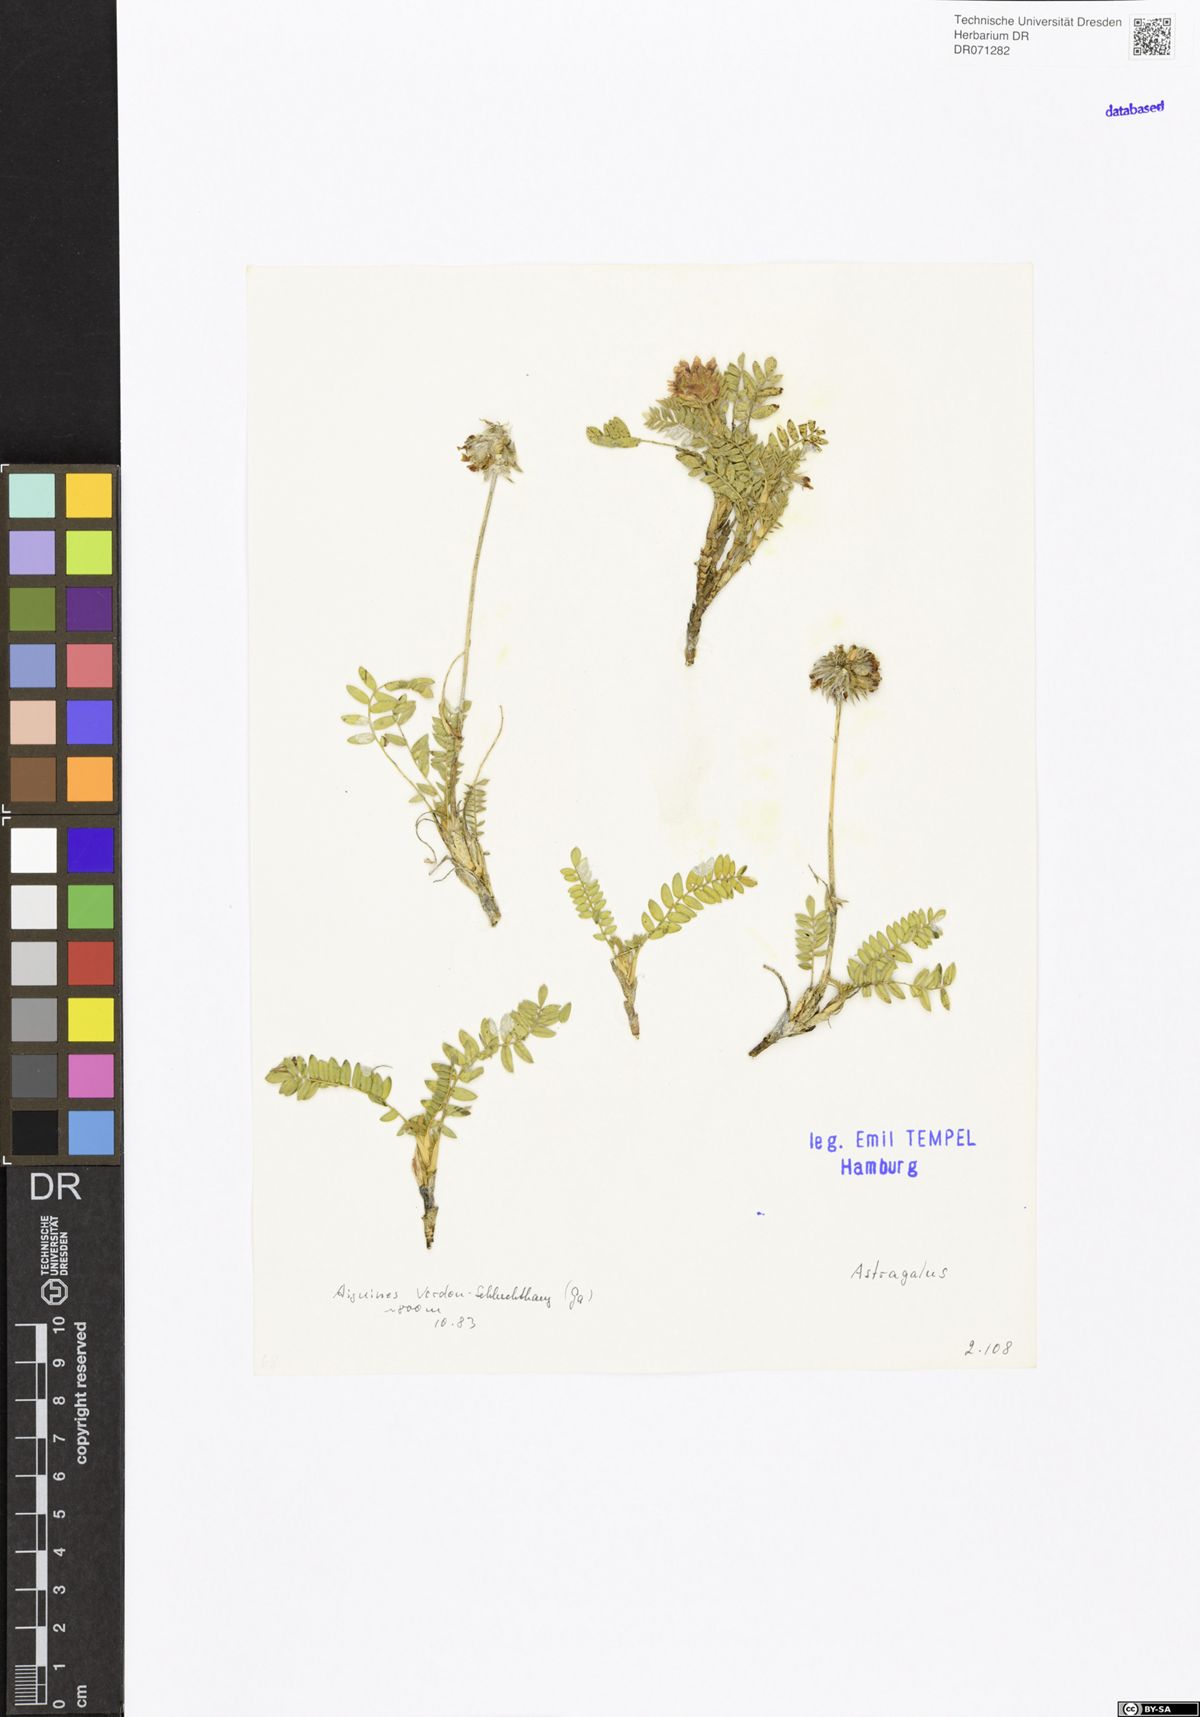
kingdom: Plantae
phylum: Tracheophyta
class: Magnoliopsida
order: Fabales
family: Fabaceae
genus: Astragalus
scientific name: Astragalus
